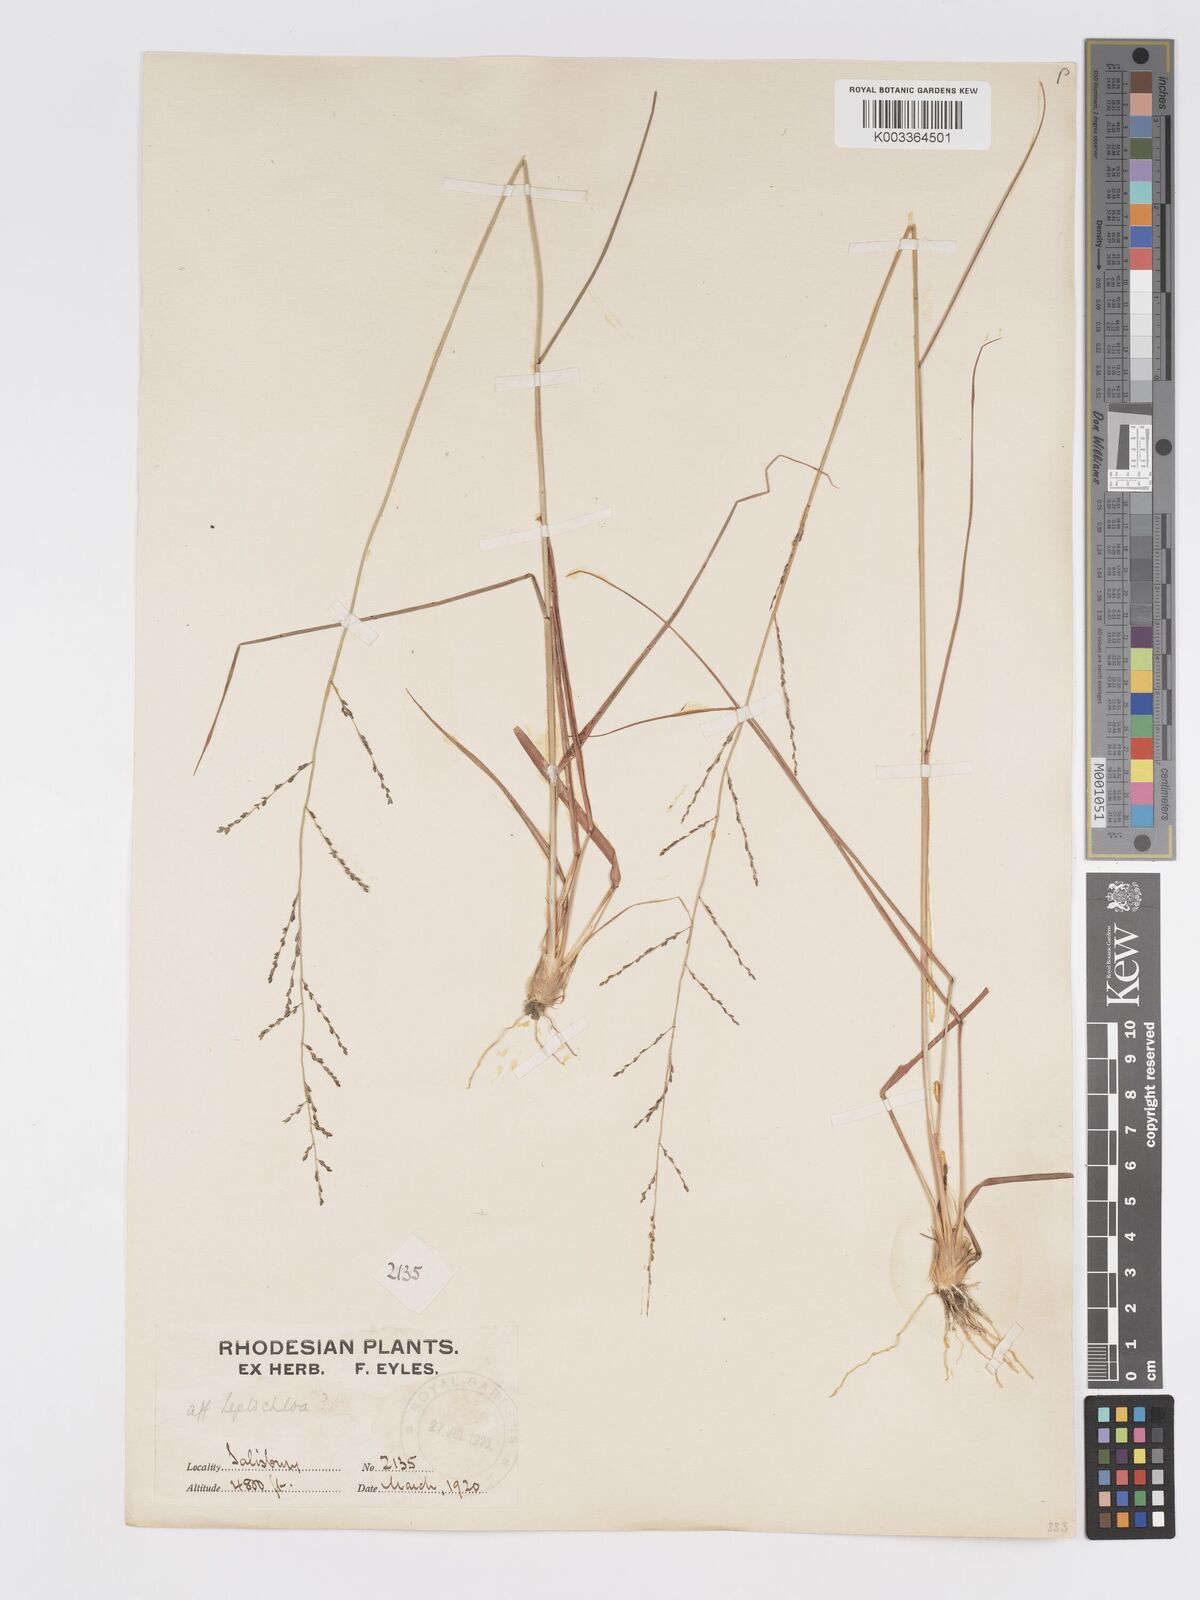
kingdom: Plantae
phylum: Tracheophyta
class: Liliopsida
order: Poales
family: Poaceae
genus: Eragrostis
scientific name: Eragrostis sclerantha
